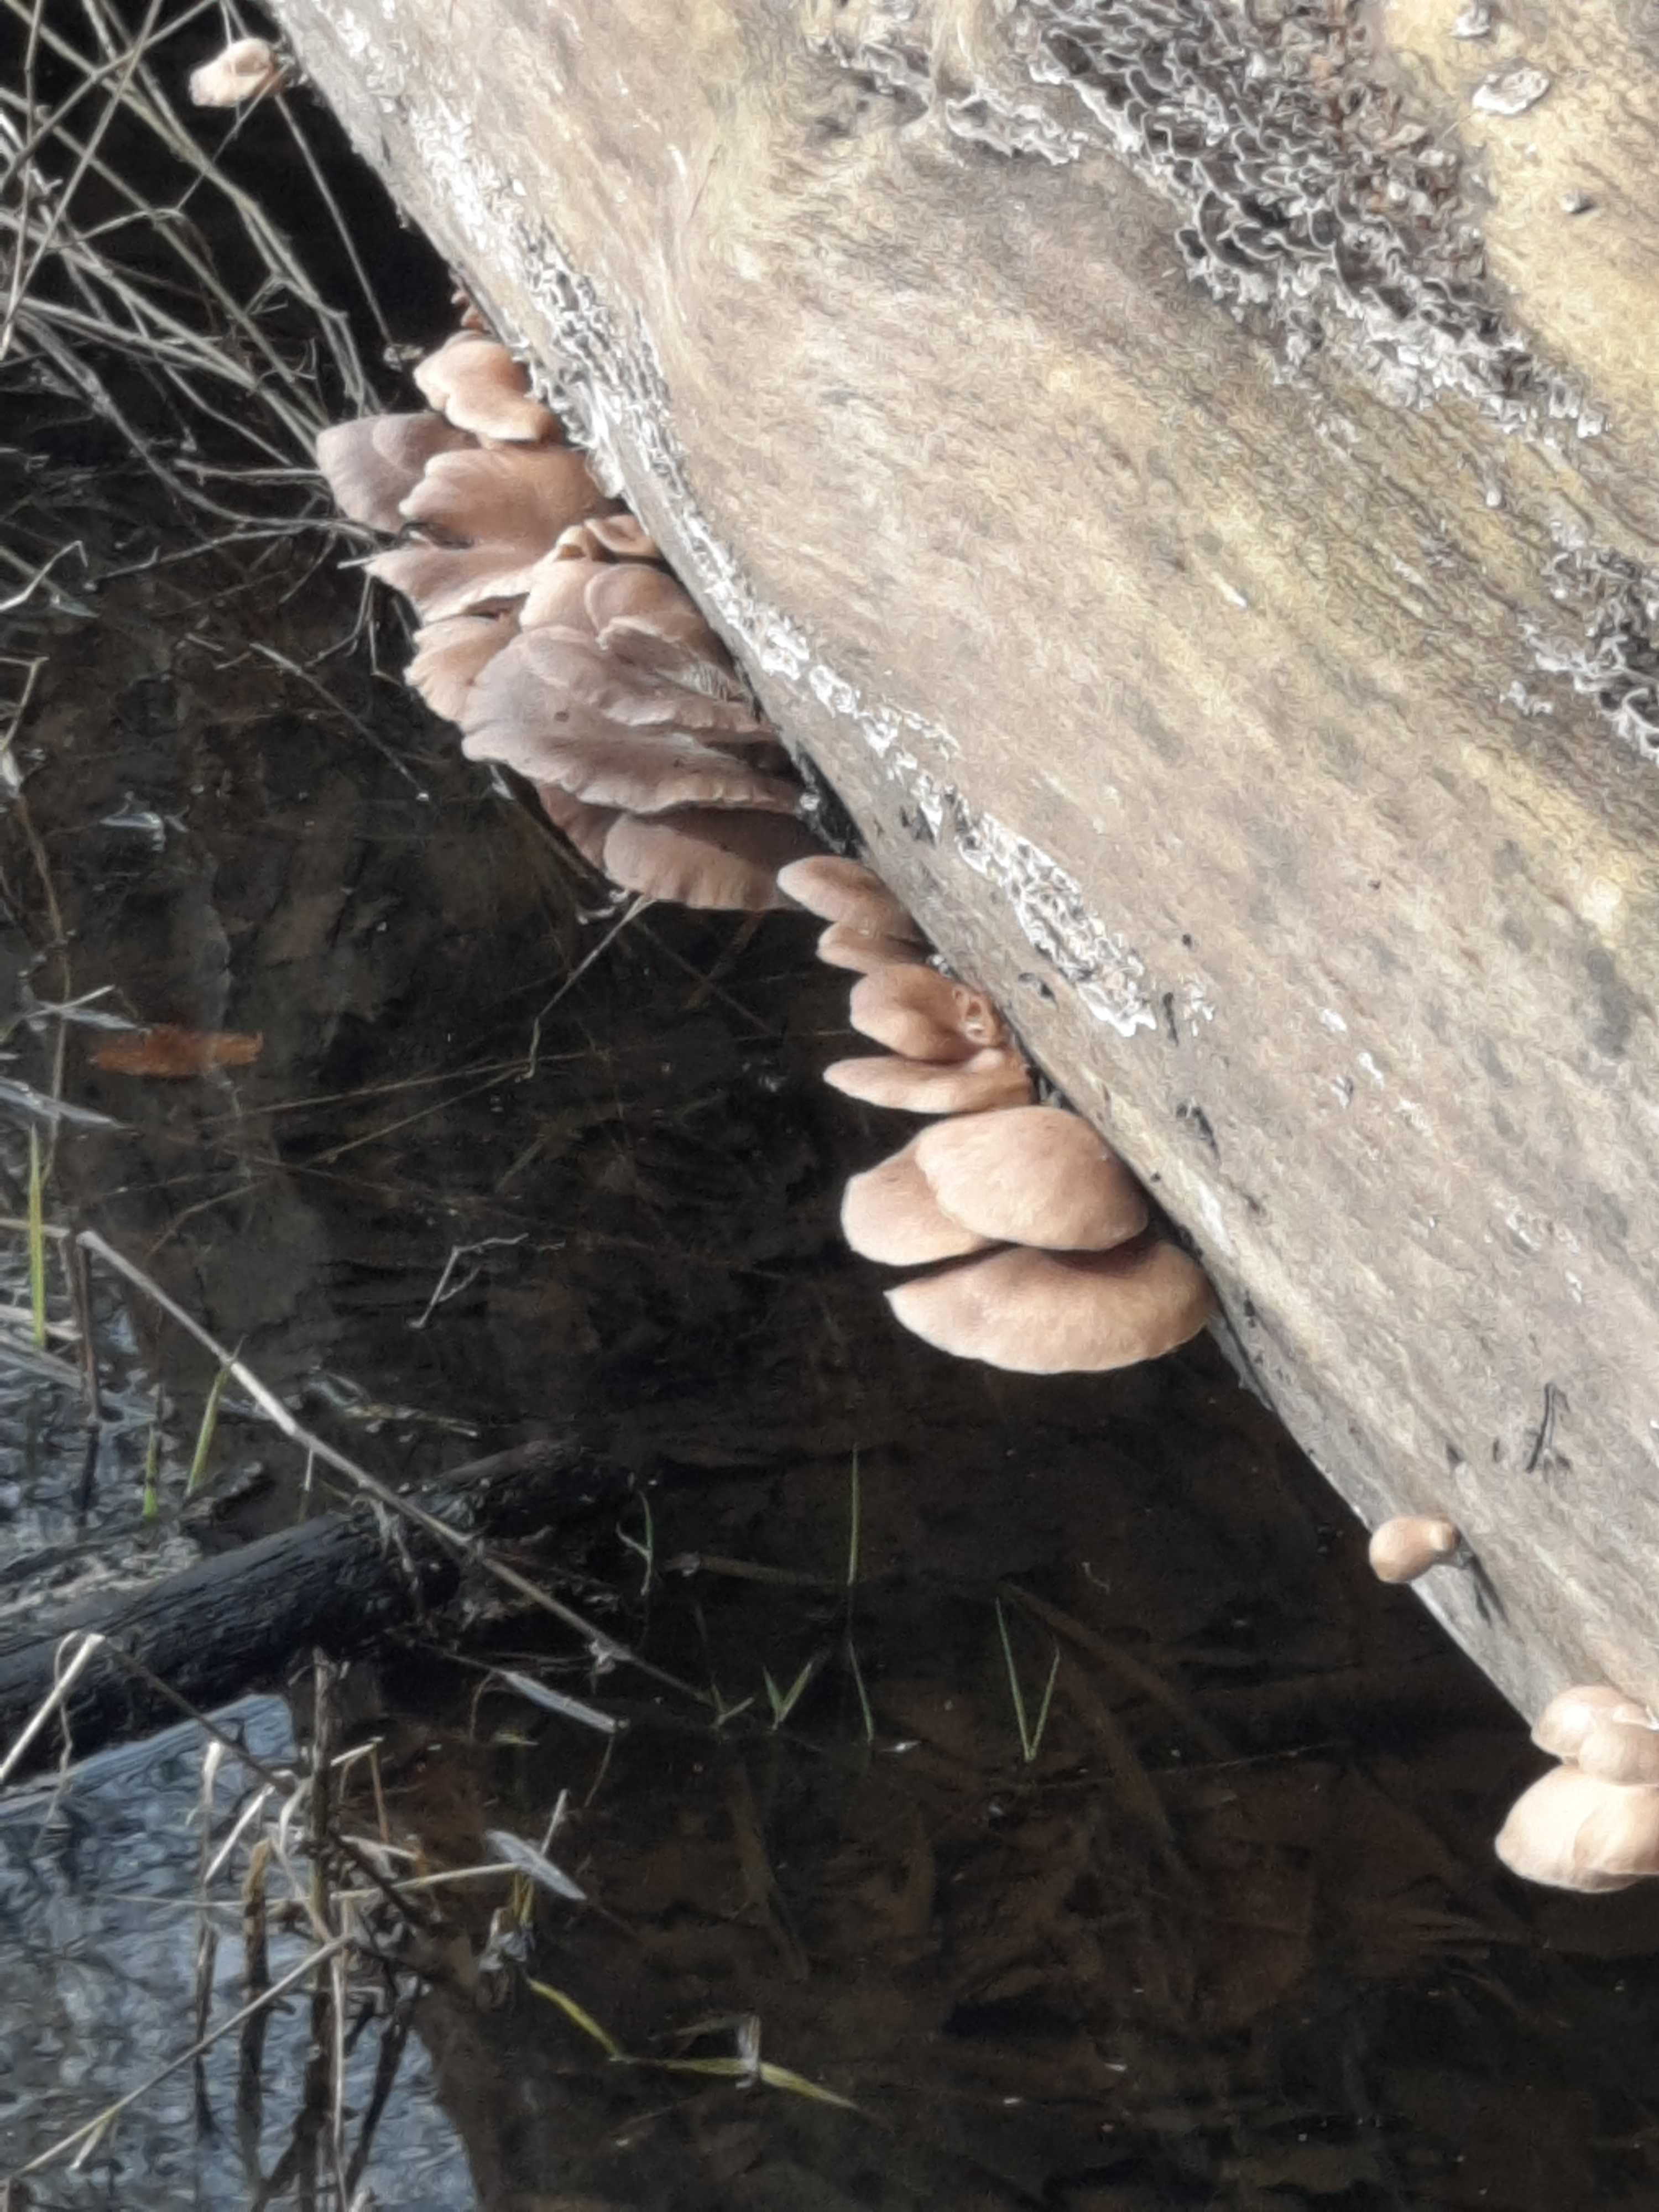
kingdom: Fungi
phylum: Basidiomycota
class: Agaricomycetes
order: Agaricales
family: Pleurotaceae
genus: Pleurotus
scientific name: Pleurotus ostreatus
